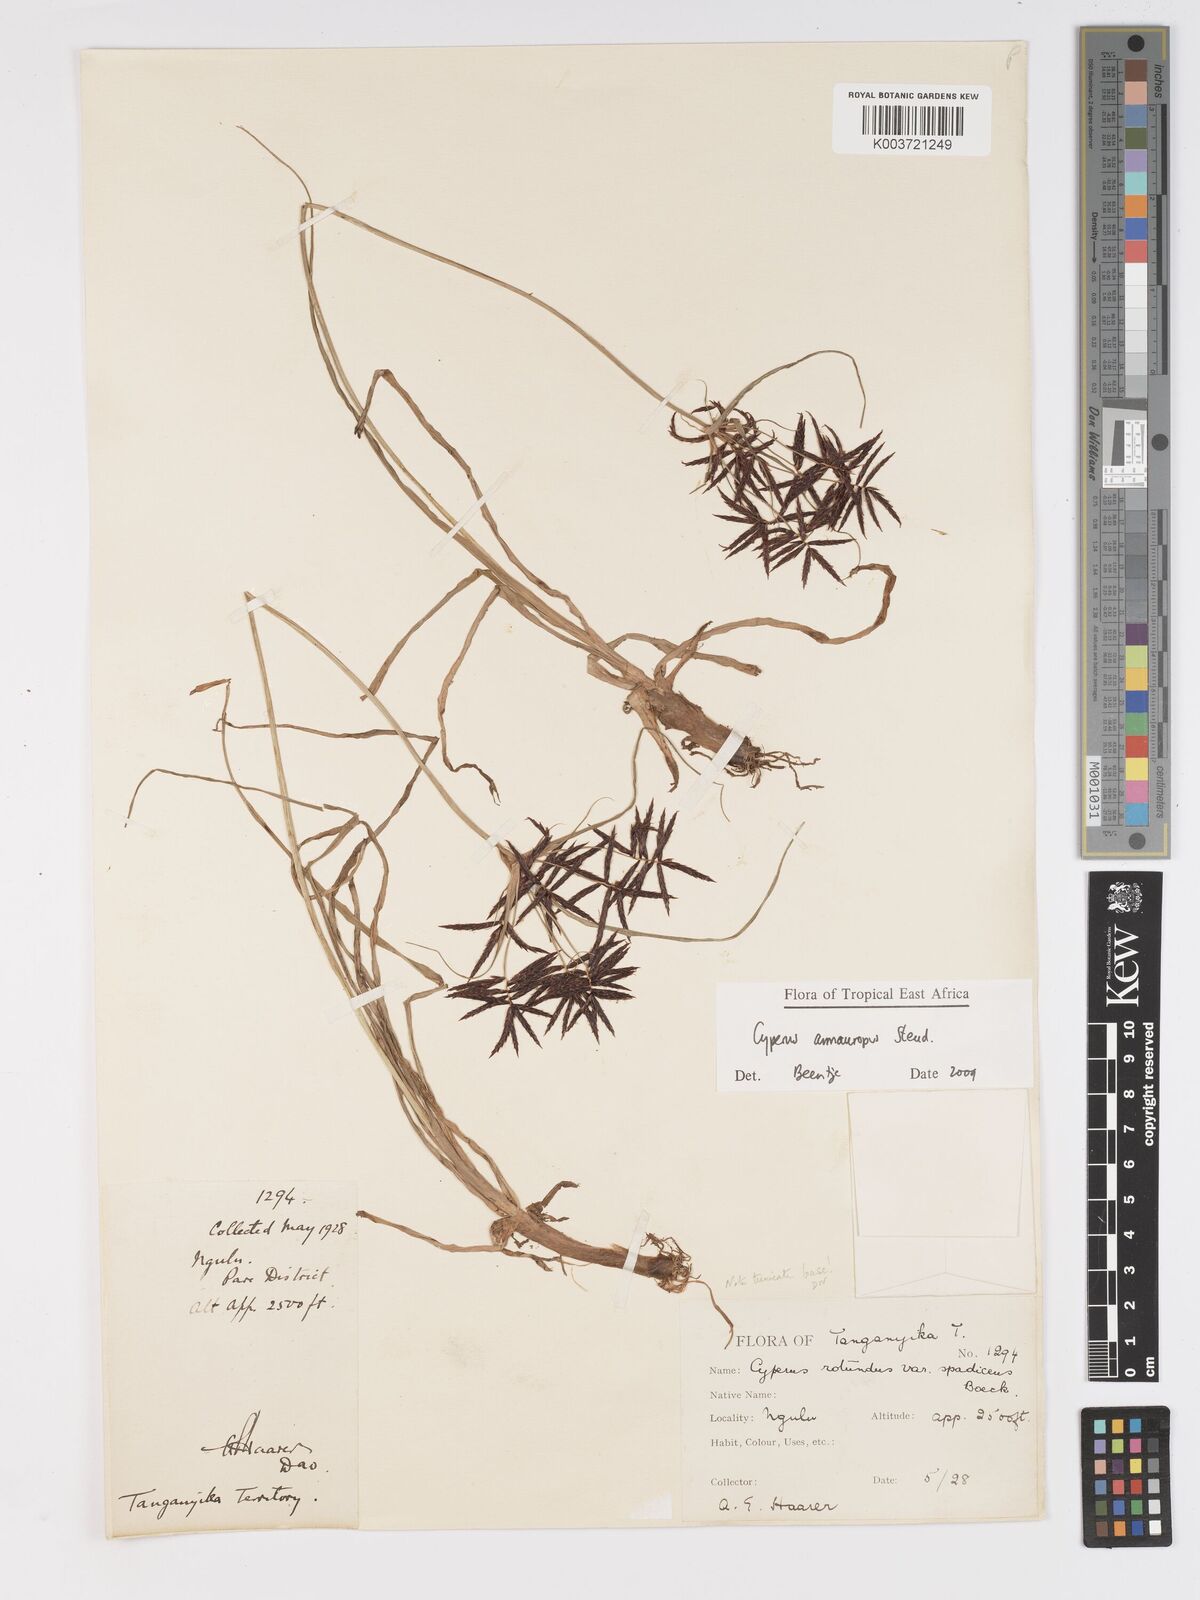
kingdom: Plantae
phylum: Tracheophyta
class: Liliopsida
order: Poales
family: Cyperaceae
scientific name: Cyperaceae
